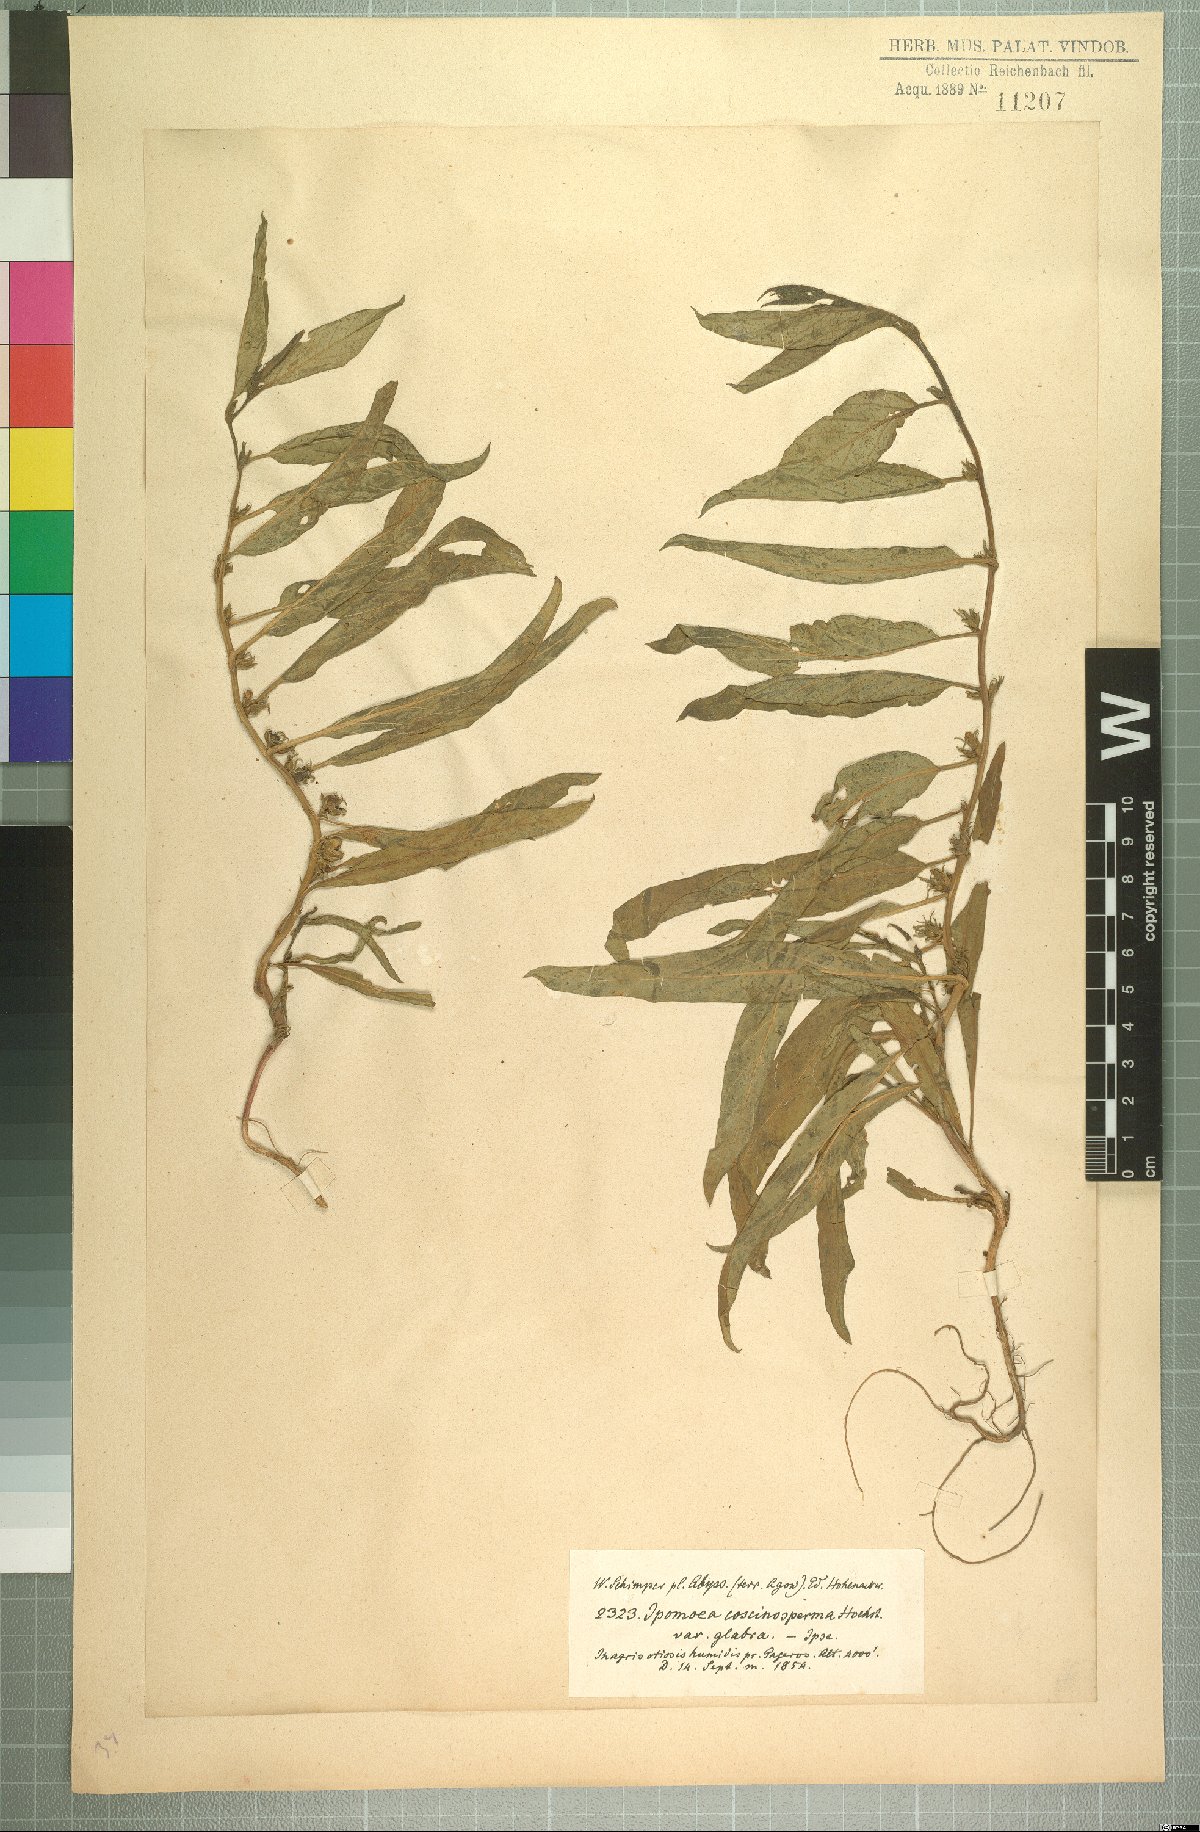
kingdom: Plantae
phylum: Tracheophyta
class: Magnoliopsida
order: Solanales
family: Convolvulaceae
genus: Ipomoea
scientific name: Ipomoea coscinosperma
